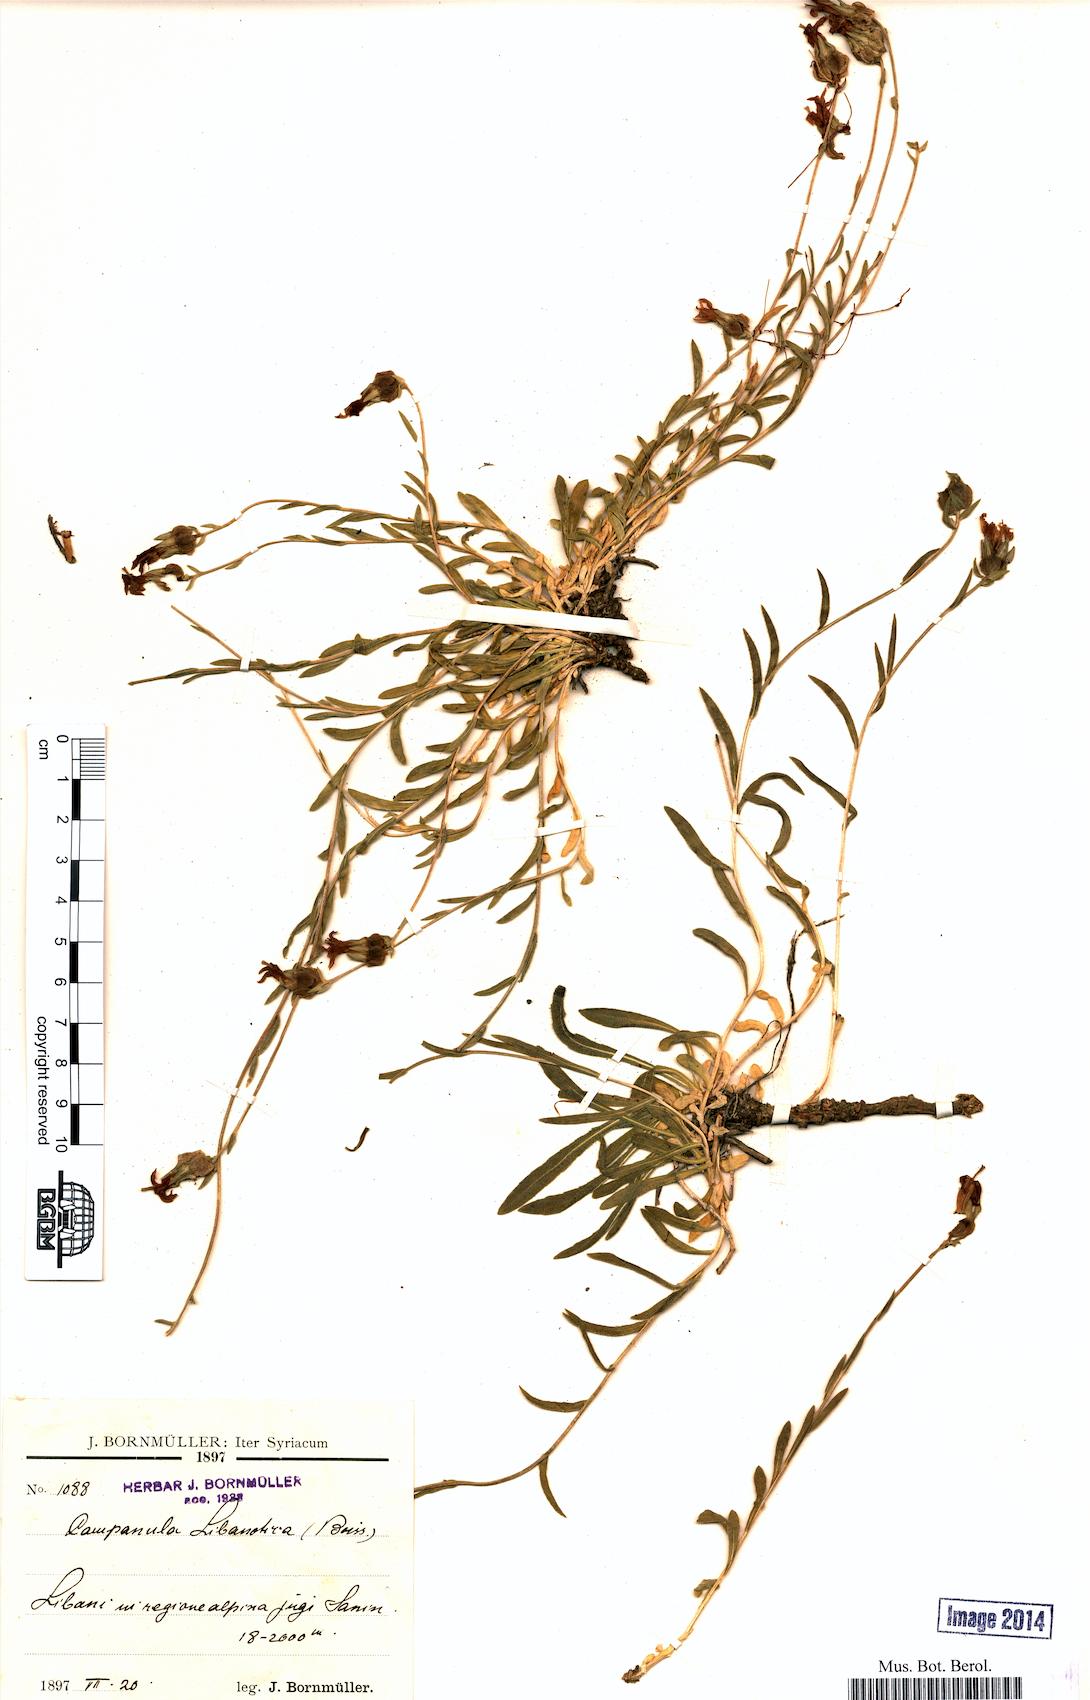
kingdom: Plantae
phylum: Tracheophyta
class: Magnoliopsida
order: Asterales
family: Campanulaceae
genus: Campanula
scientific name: Campanula stricta
